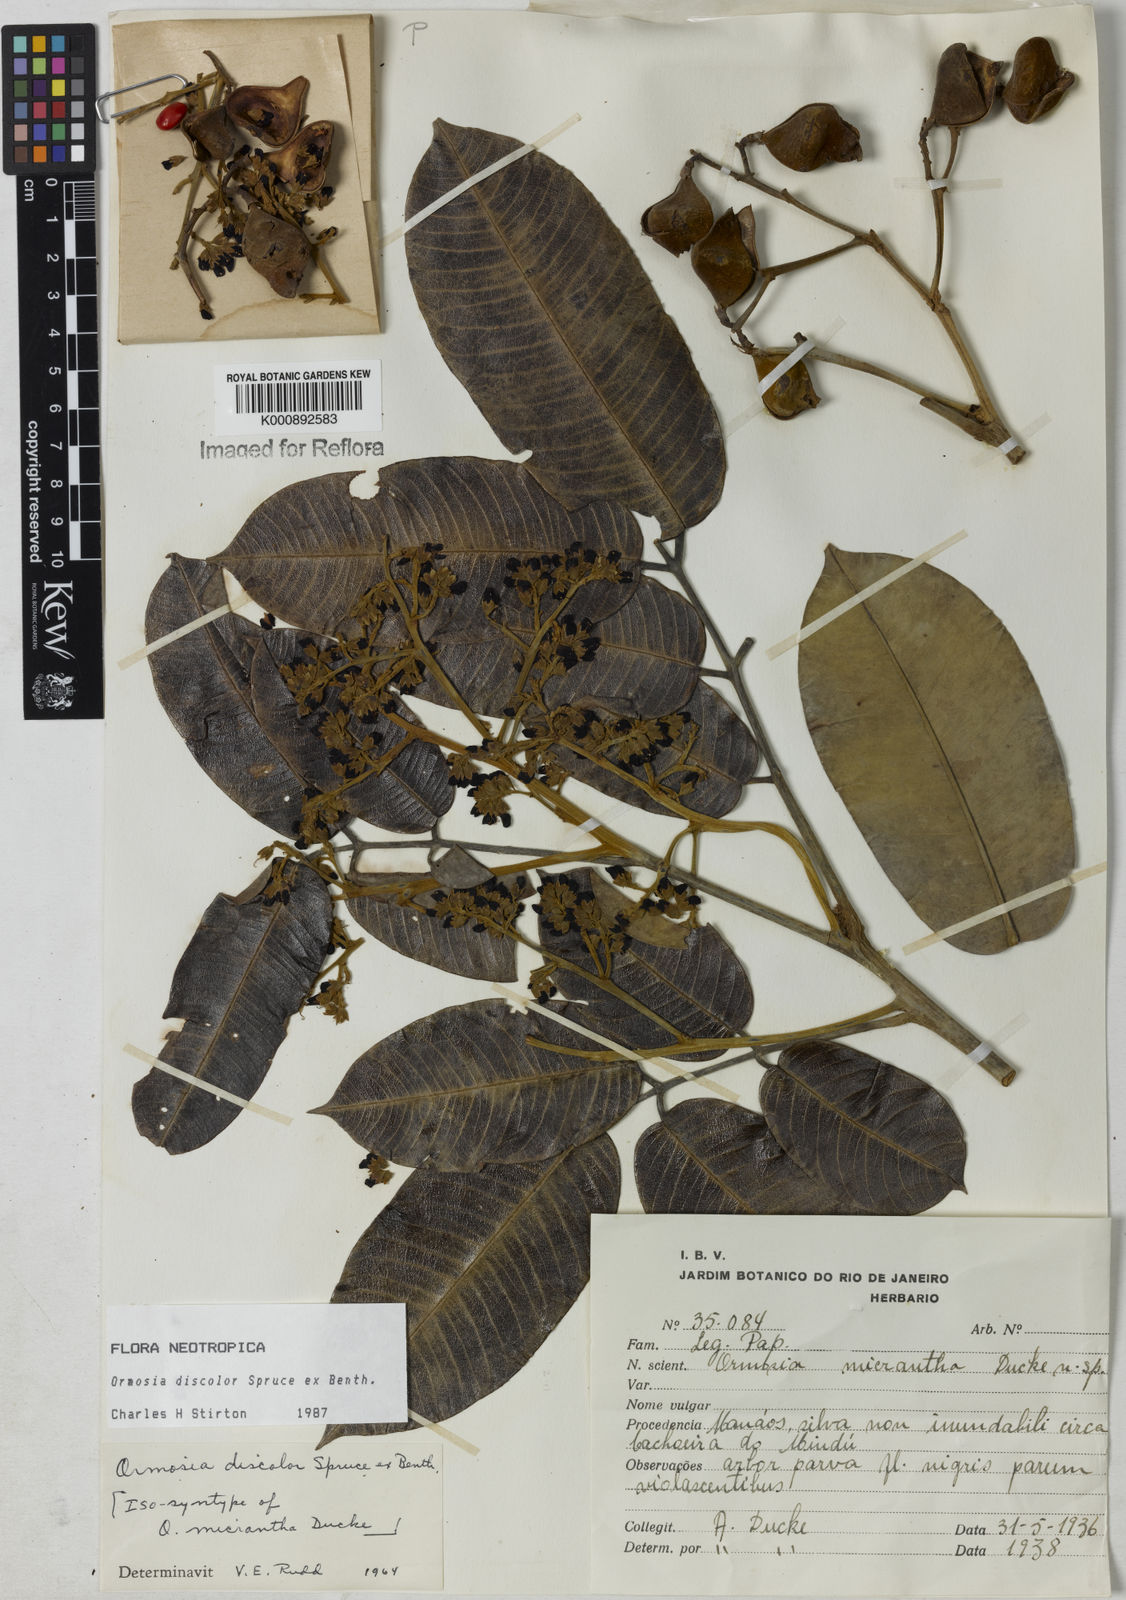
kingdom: Plantae
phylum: Tracheophyta
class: Magnoliopsida
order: Fabales
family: Fabaceae
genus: Ormosia
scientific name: Ormosia discolor
